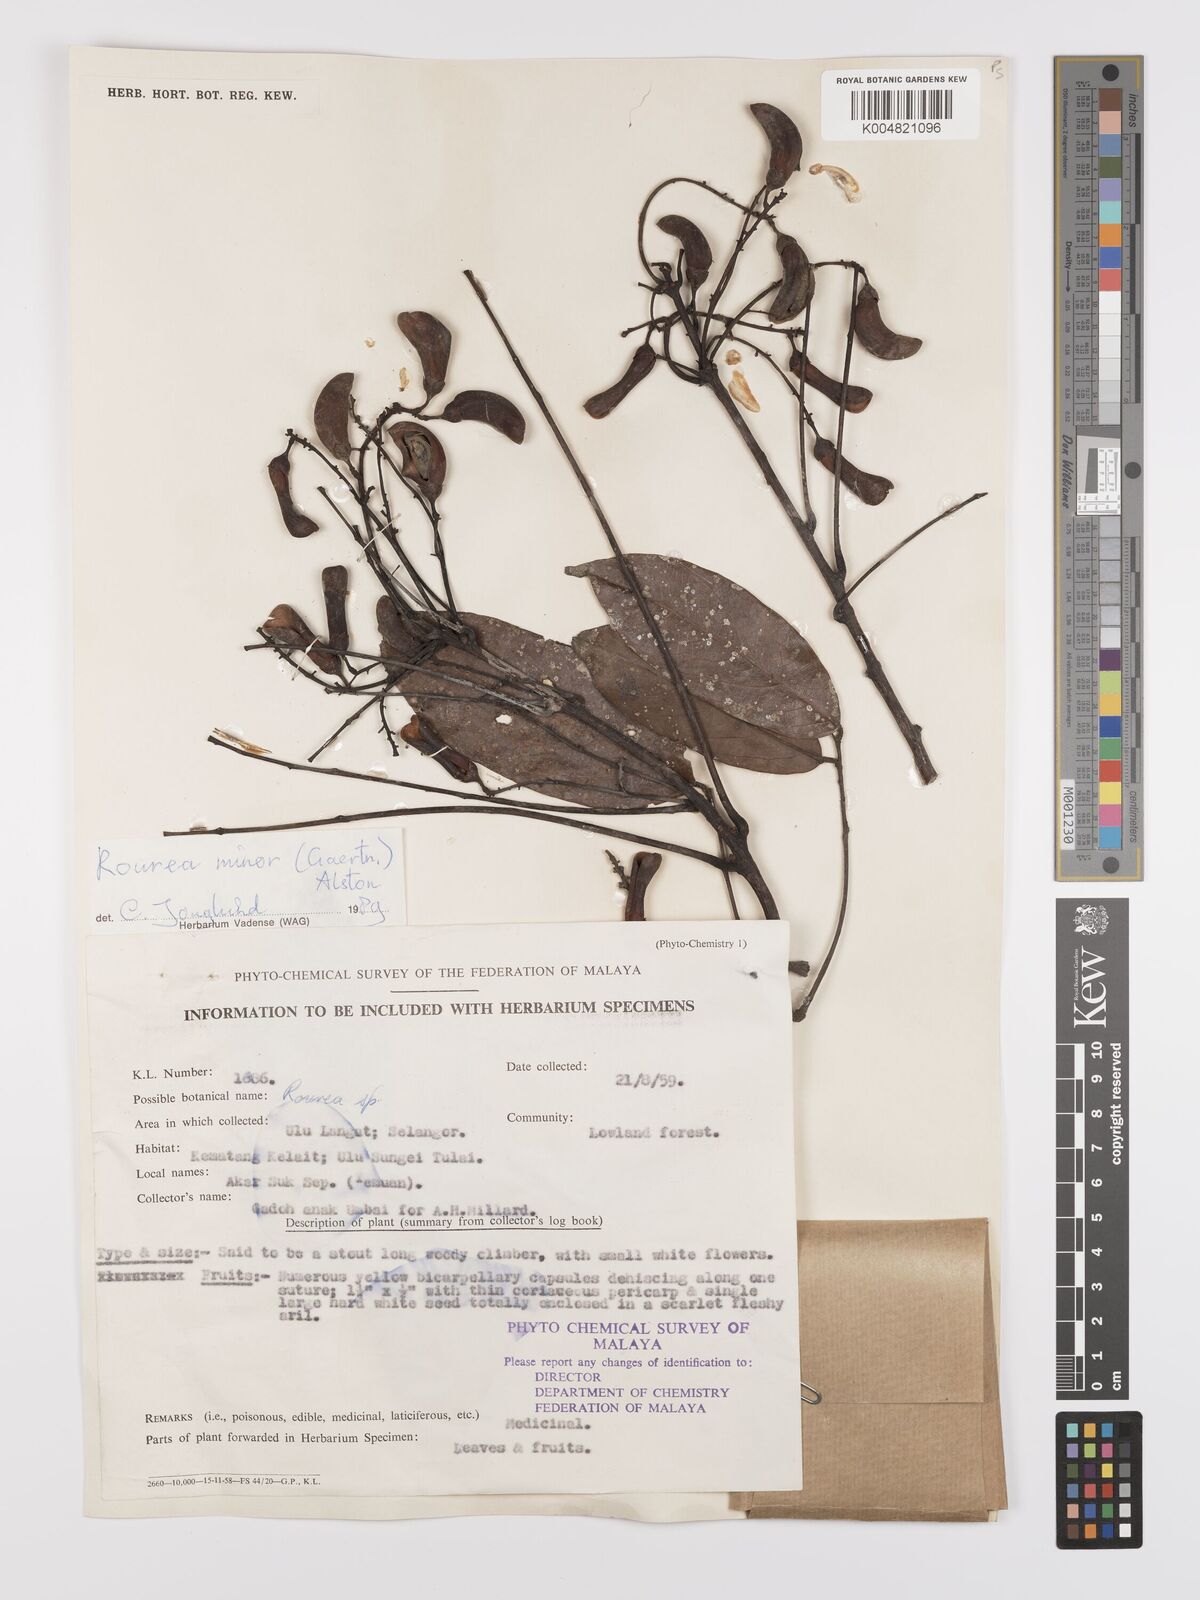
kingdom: Plantae
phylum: Tracheophyta
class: Magnoliopsida
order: Oxalidales
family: Connaraceae
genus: Rourea
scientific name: Rourea minor
